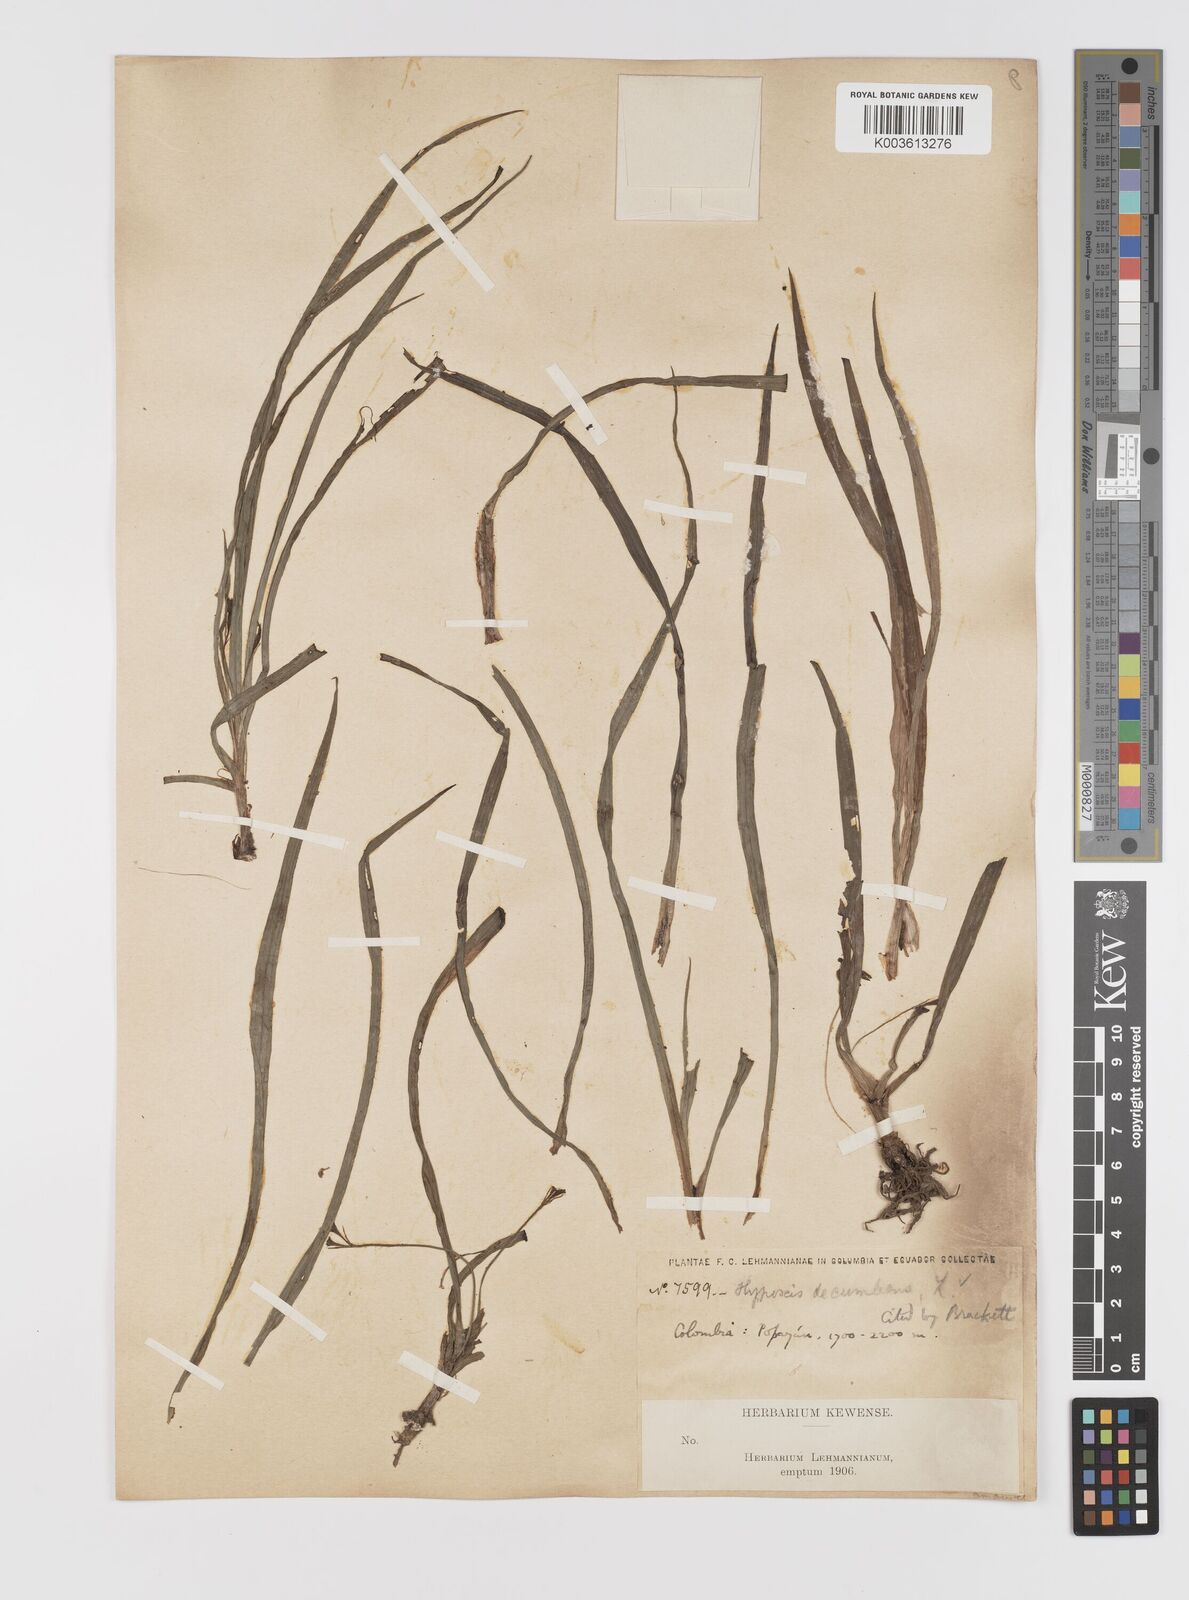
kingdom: Plantae
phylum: Tracheophyta
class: Liliopsida
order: Asparagales
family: Hypoxidaceae
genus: Hypoxis
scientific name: Hypoxis decumbens
